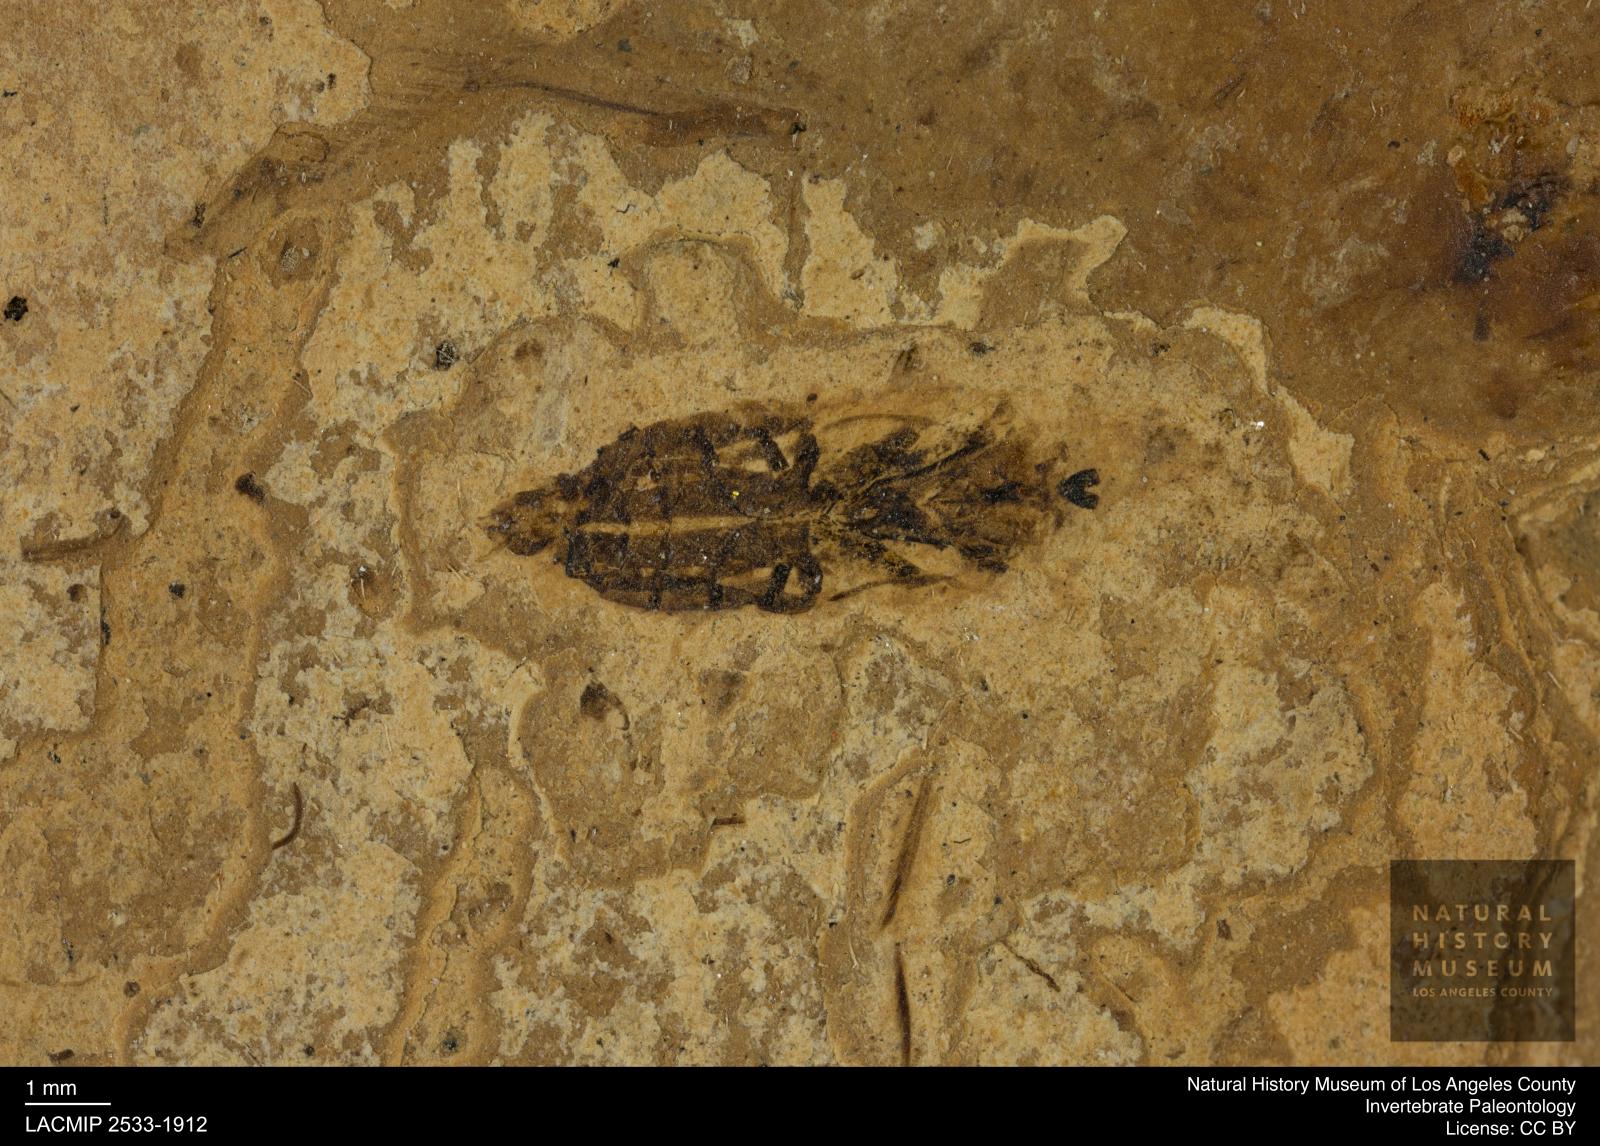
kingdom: Animalia
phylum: Arthropoda
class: Insecta
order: Hemiptera
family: Notonectidae
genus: Notonecta
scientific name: Notonecta
